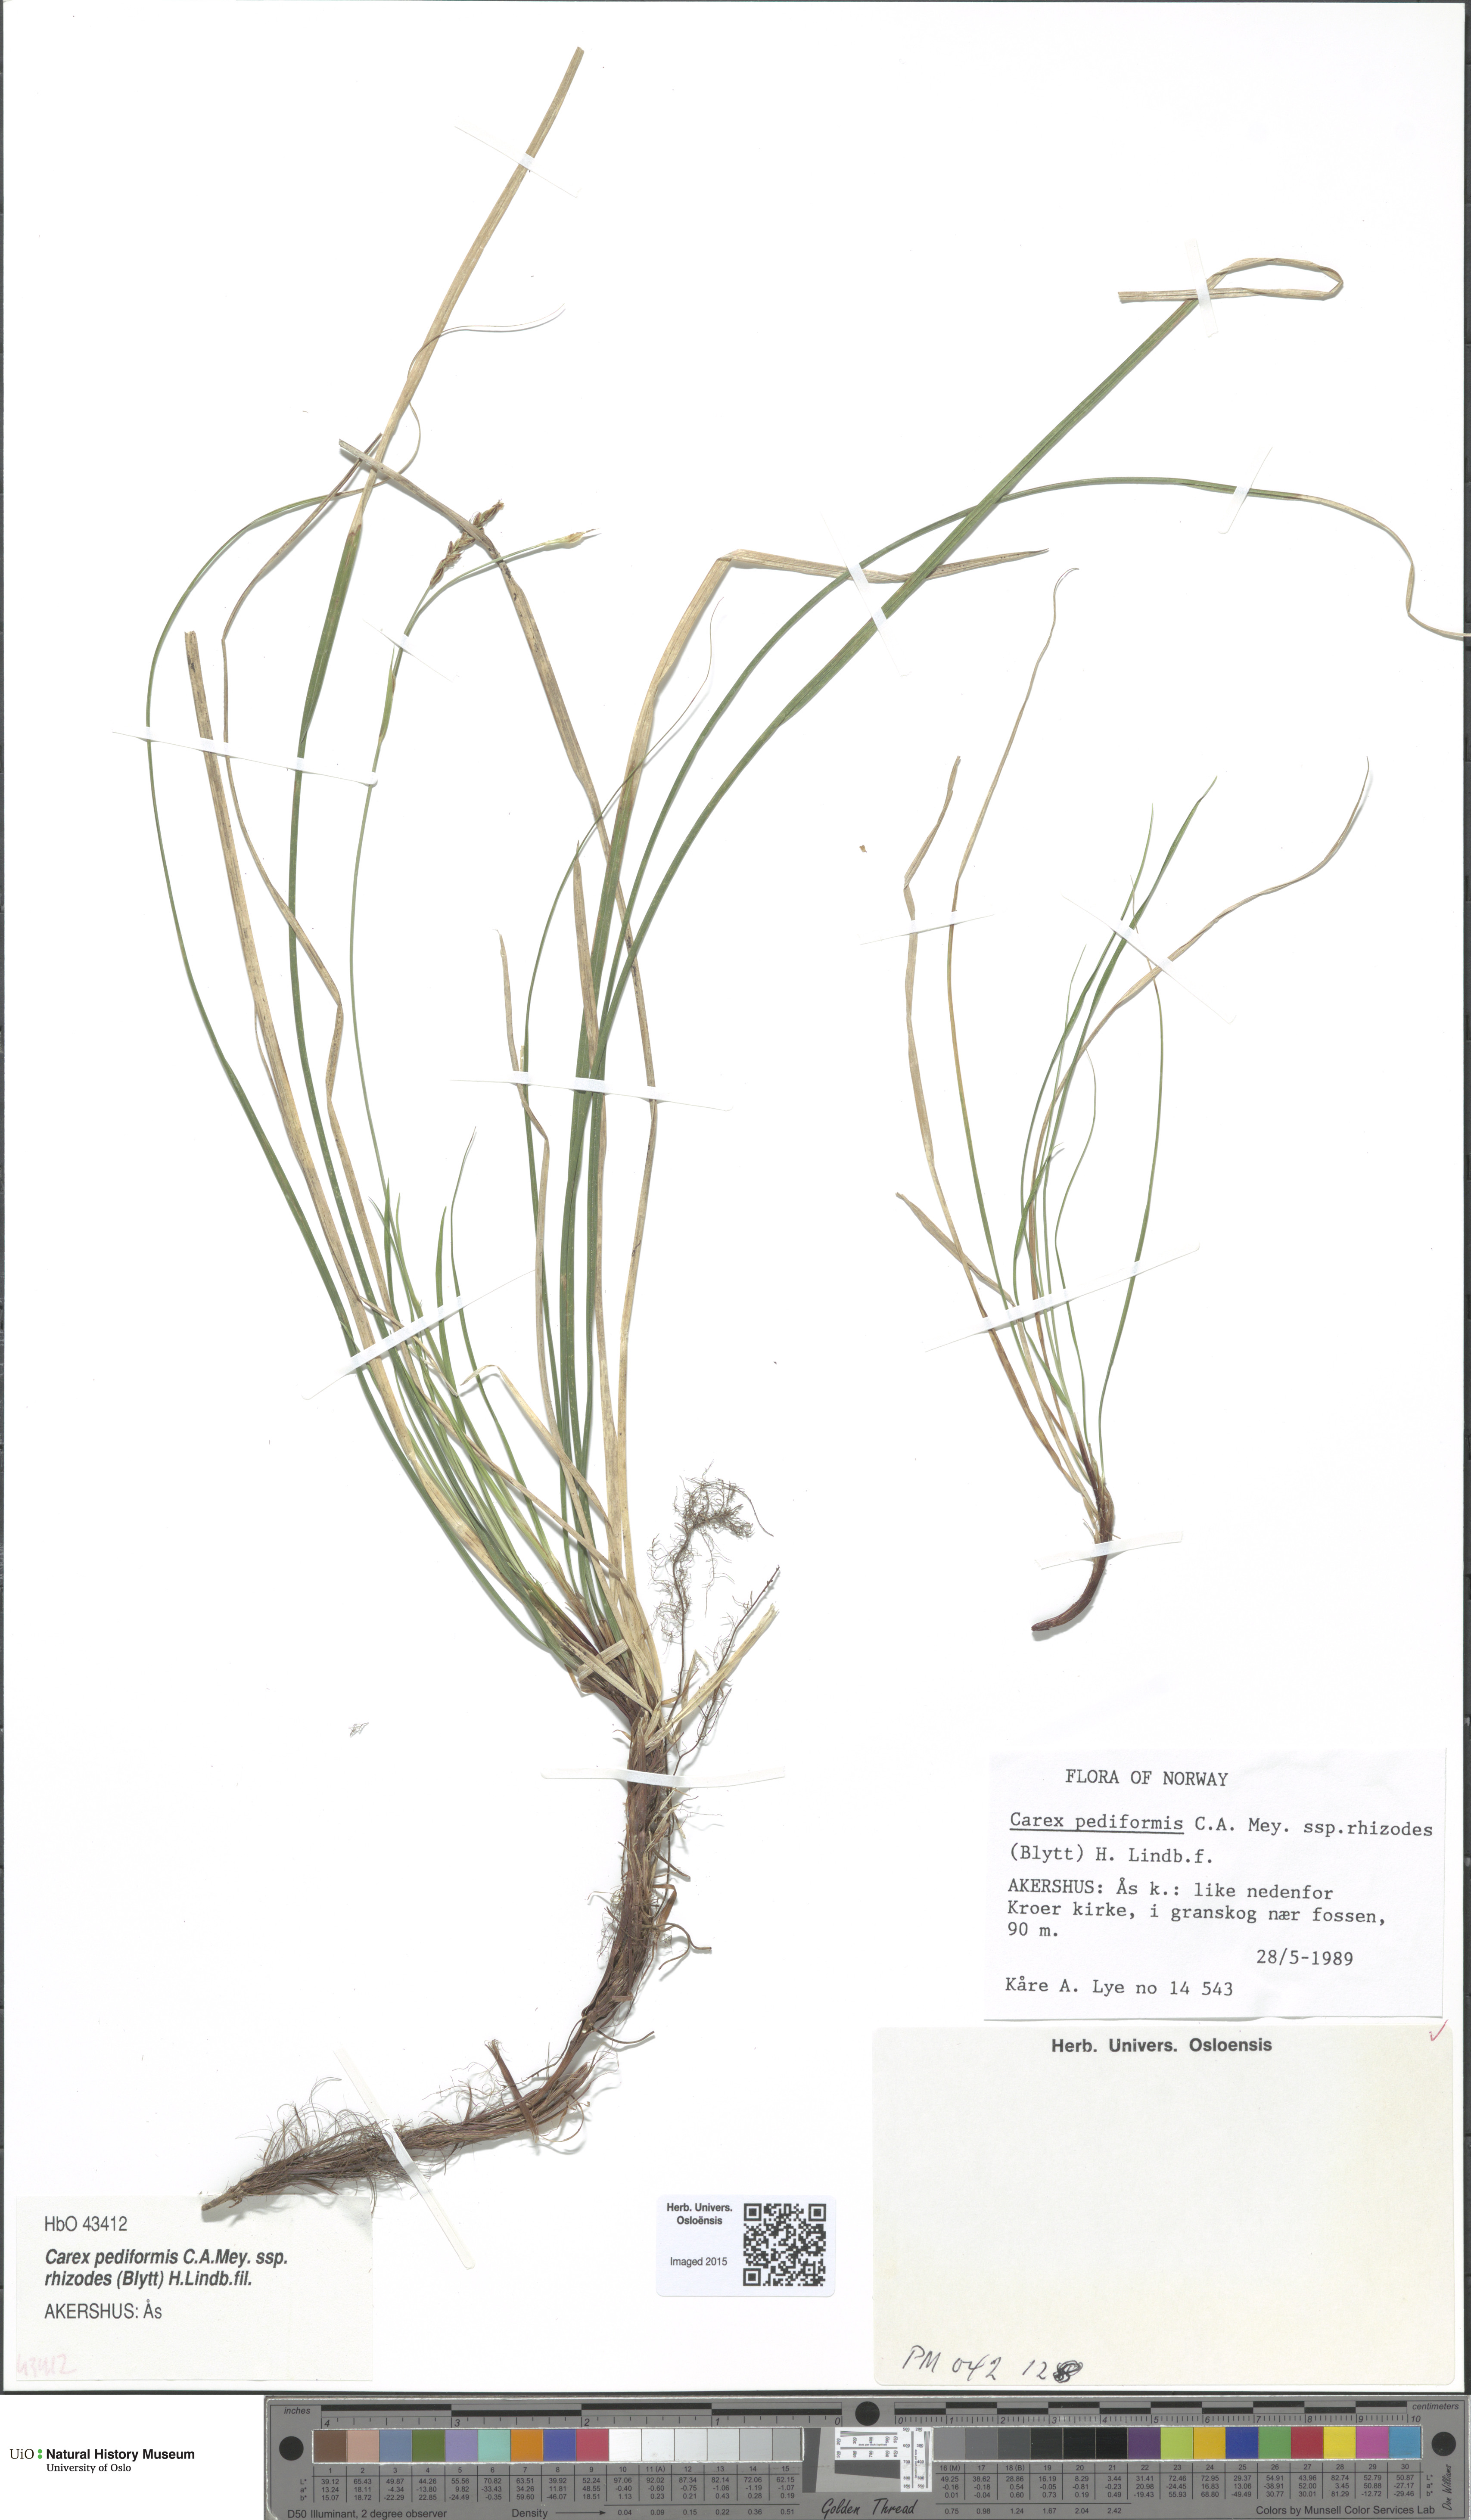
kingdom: Plantae
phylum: Tracheophyta
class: Liliopsida
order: Poales
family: Cyperaceae
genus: Carex
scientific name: Carex rhizina
